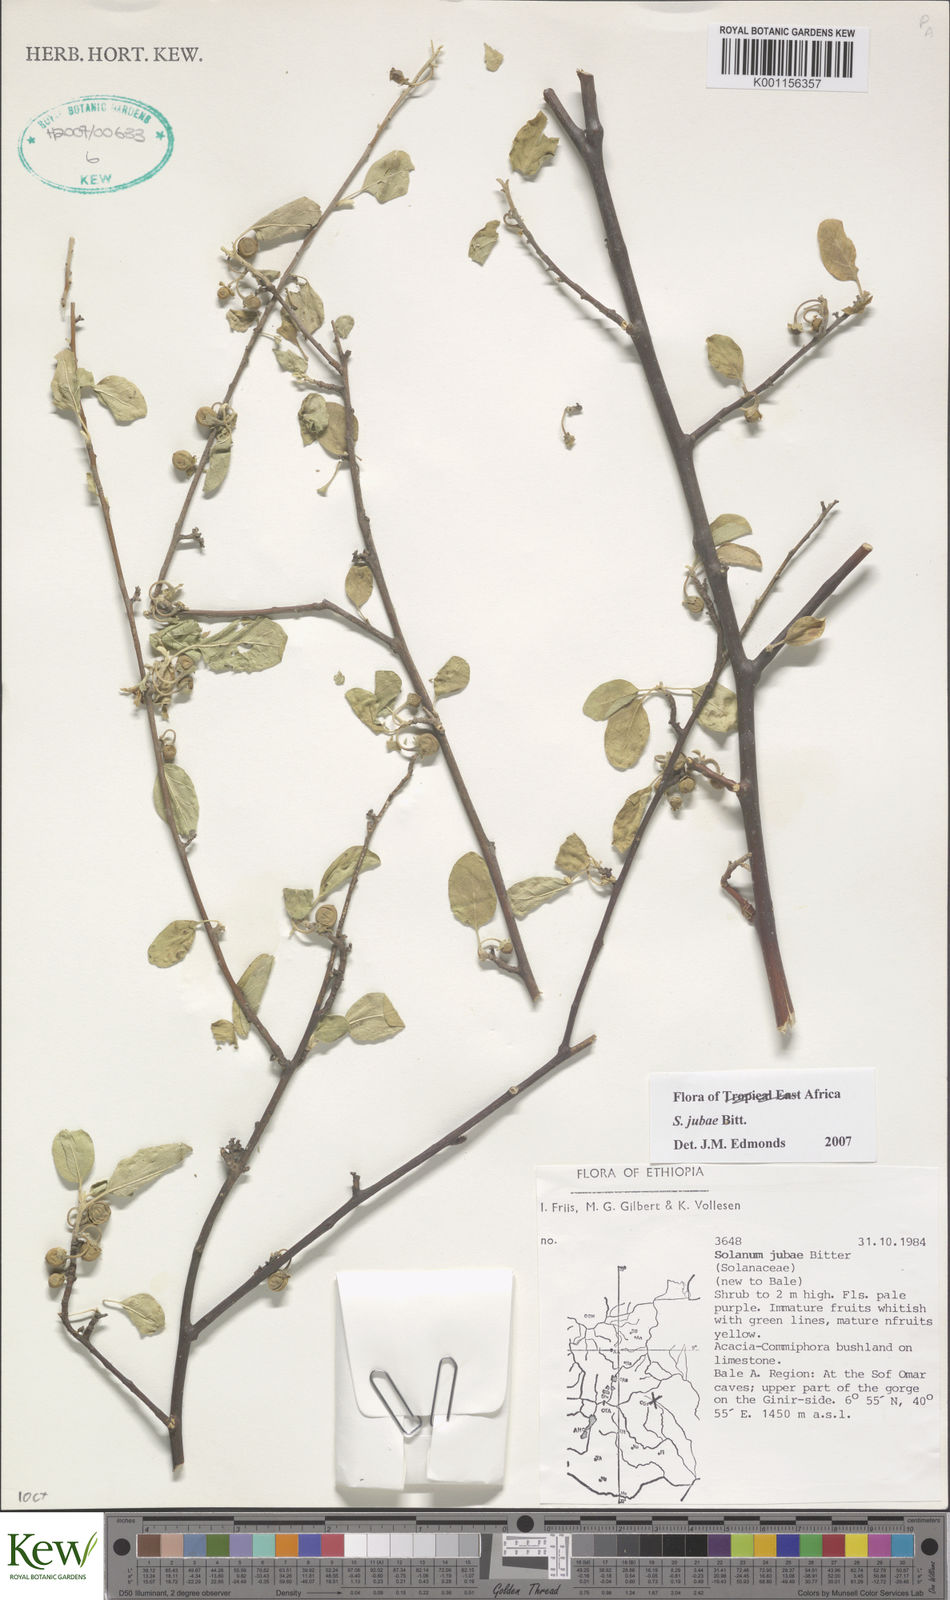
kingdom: Plantae
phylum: Tracheophyta
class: Magnoliopsida
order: Solanales
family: Solanaceae
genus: Solanum
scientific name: Solanum jubae
